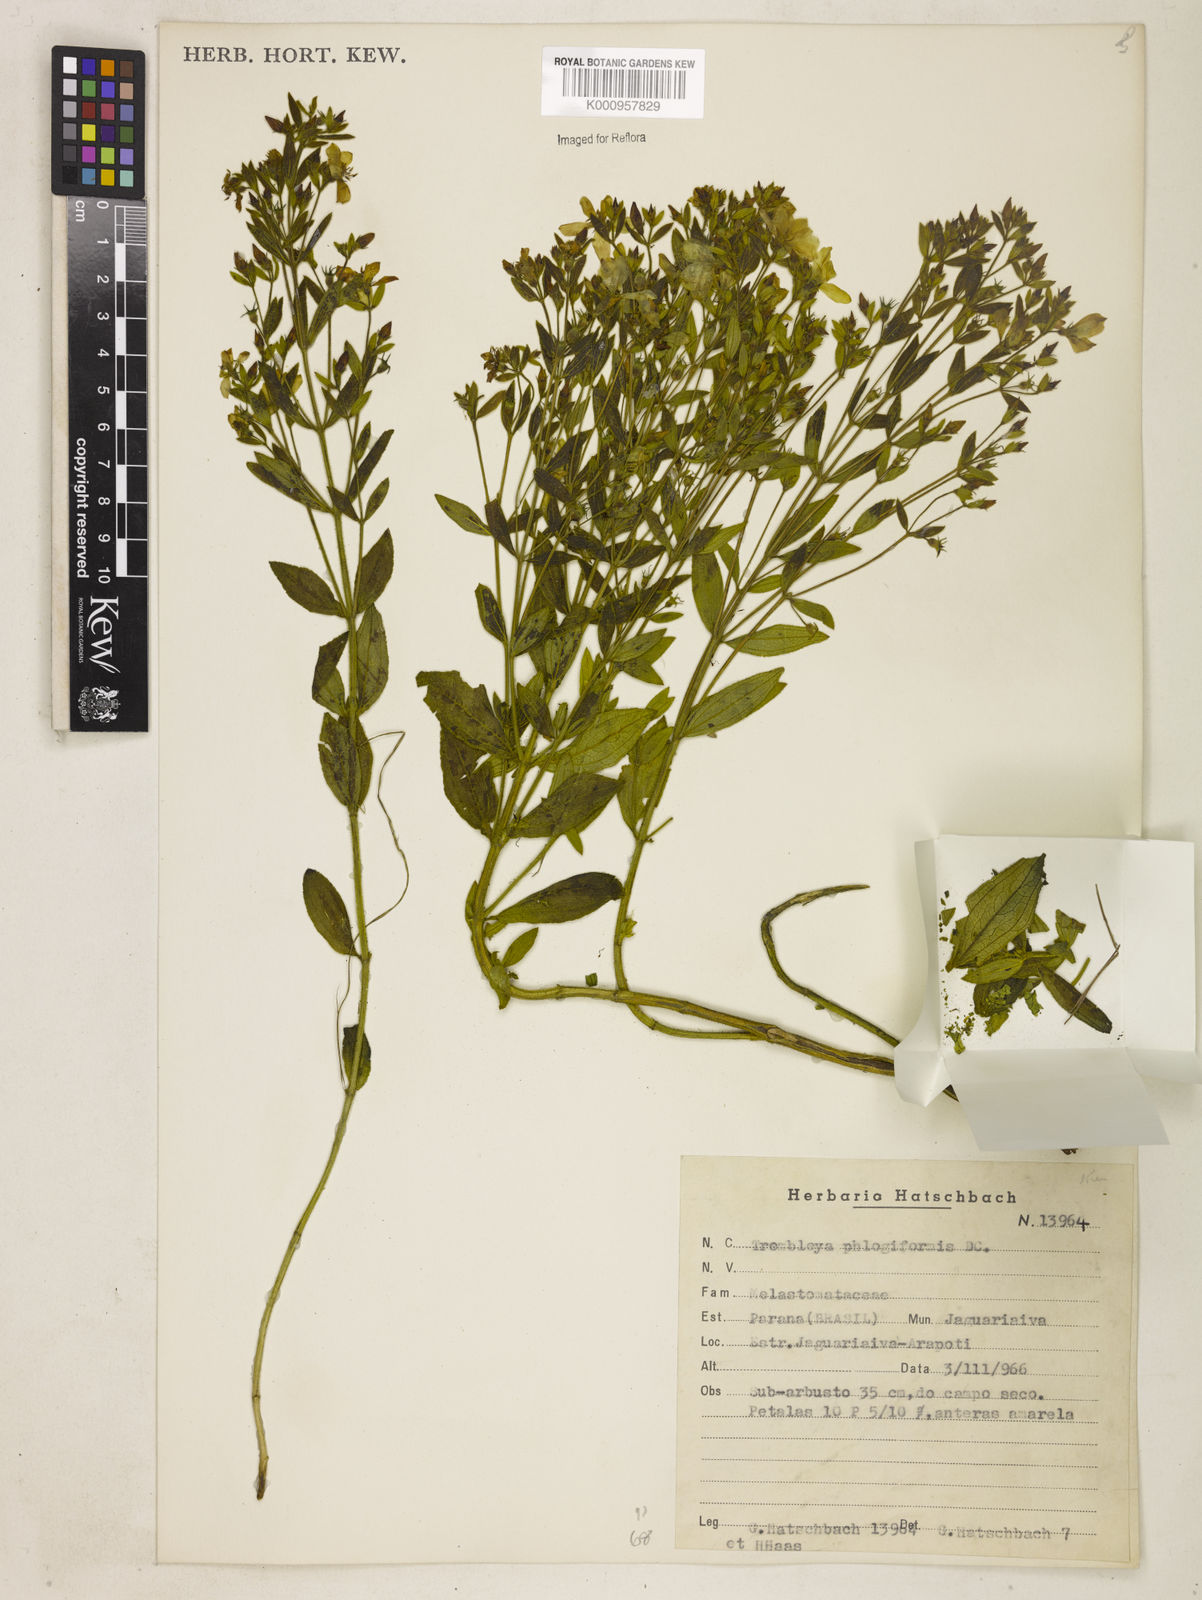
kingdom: Plantae
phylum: Tracheophyta
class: Magnoliopsida
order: Myrtales
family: Melastomataceae
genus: Microlicia
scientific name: Microlicia phlogiformis
